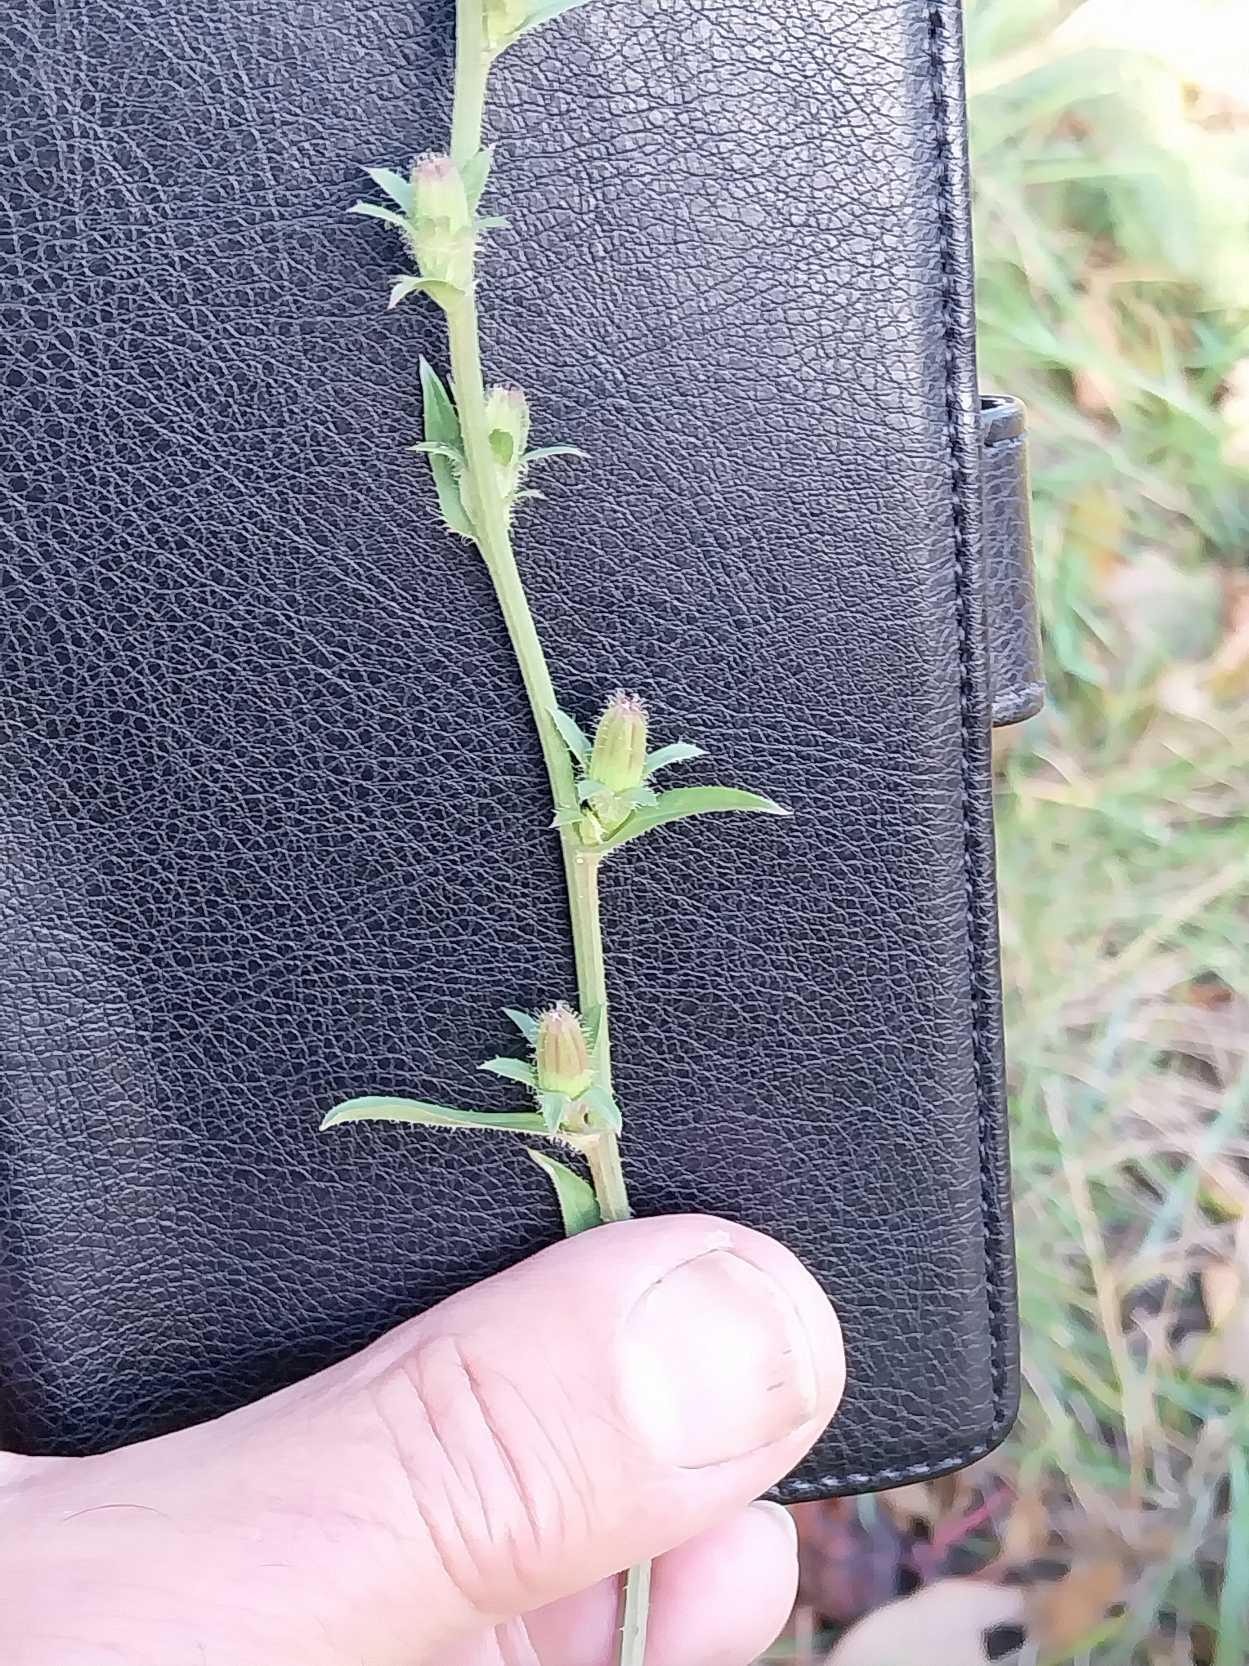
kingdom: Plantae
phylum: Tracheophyta
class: Magnoliopsida
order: Asterales
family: Asteraceae
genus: Cichorium
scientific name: Cichorium intybus
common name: Cikorie
